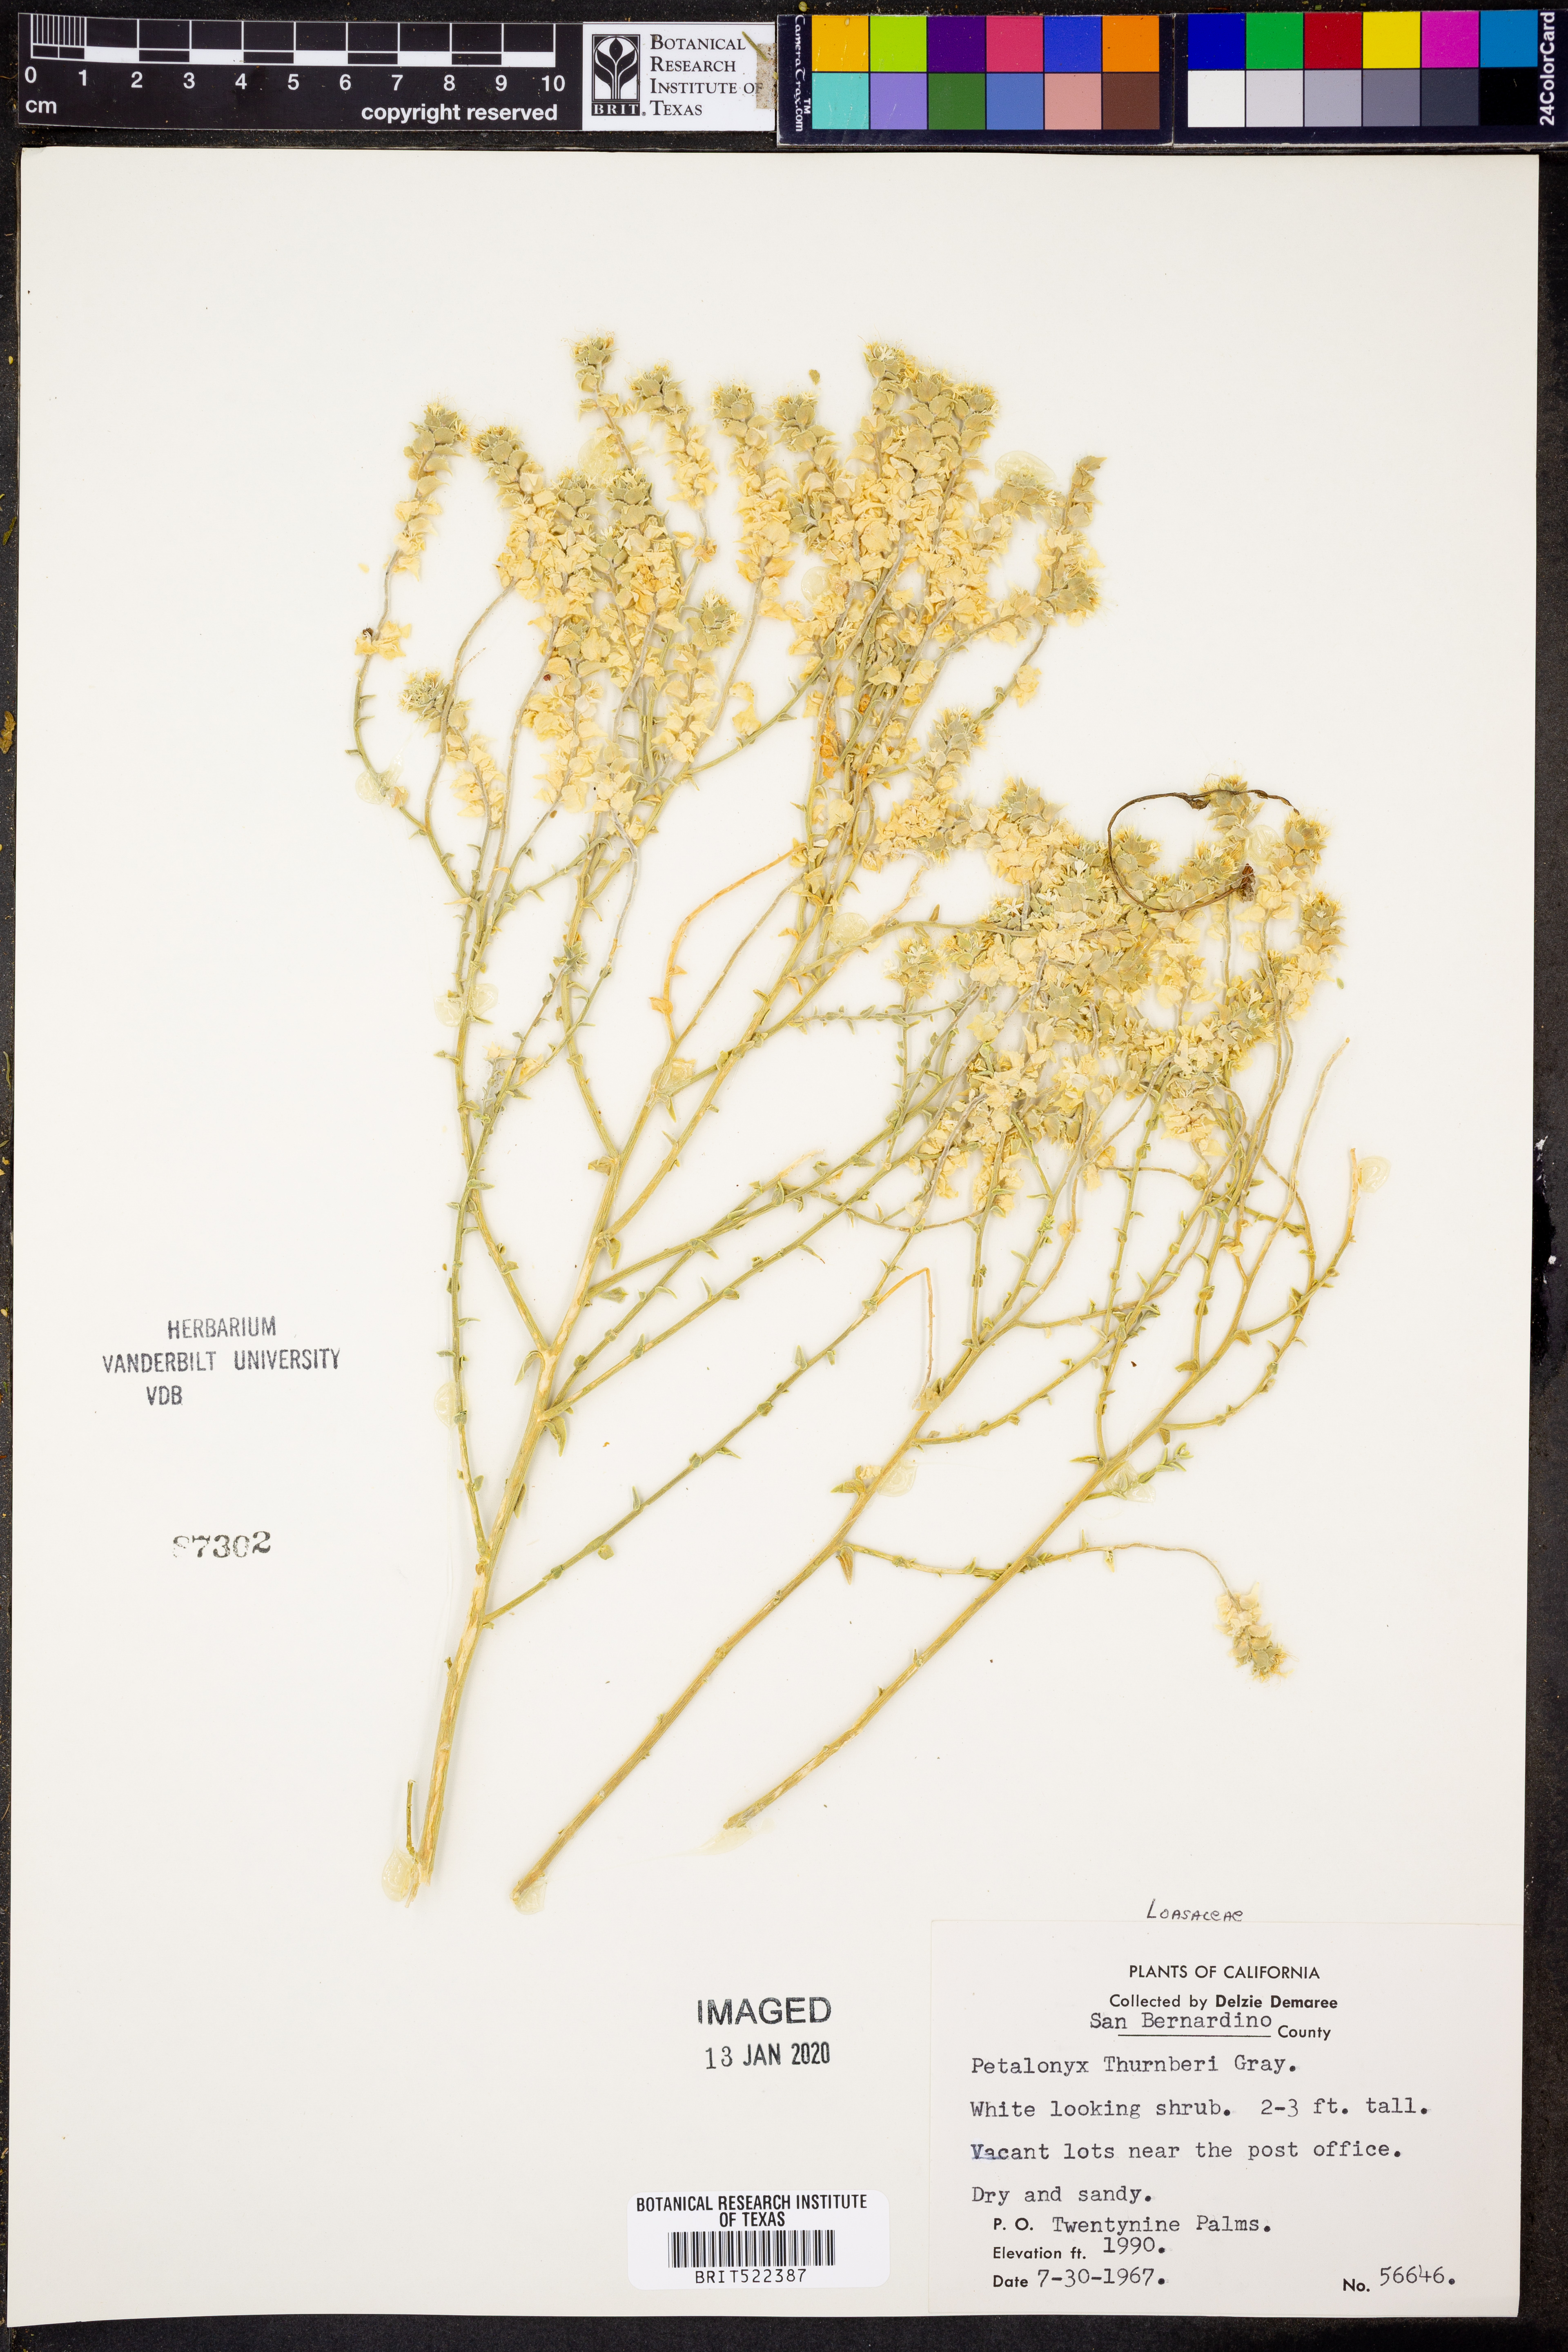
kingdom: Plantae
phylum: Tracheophyta
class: Magnoliopsida
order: Cornales
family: Loasaceae
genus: Petalonyx
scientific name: Petalonyx thurberi
